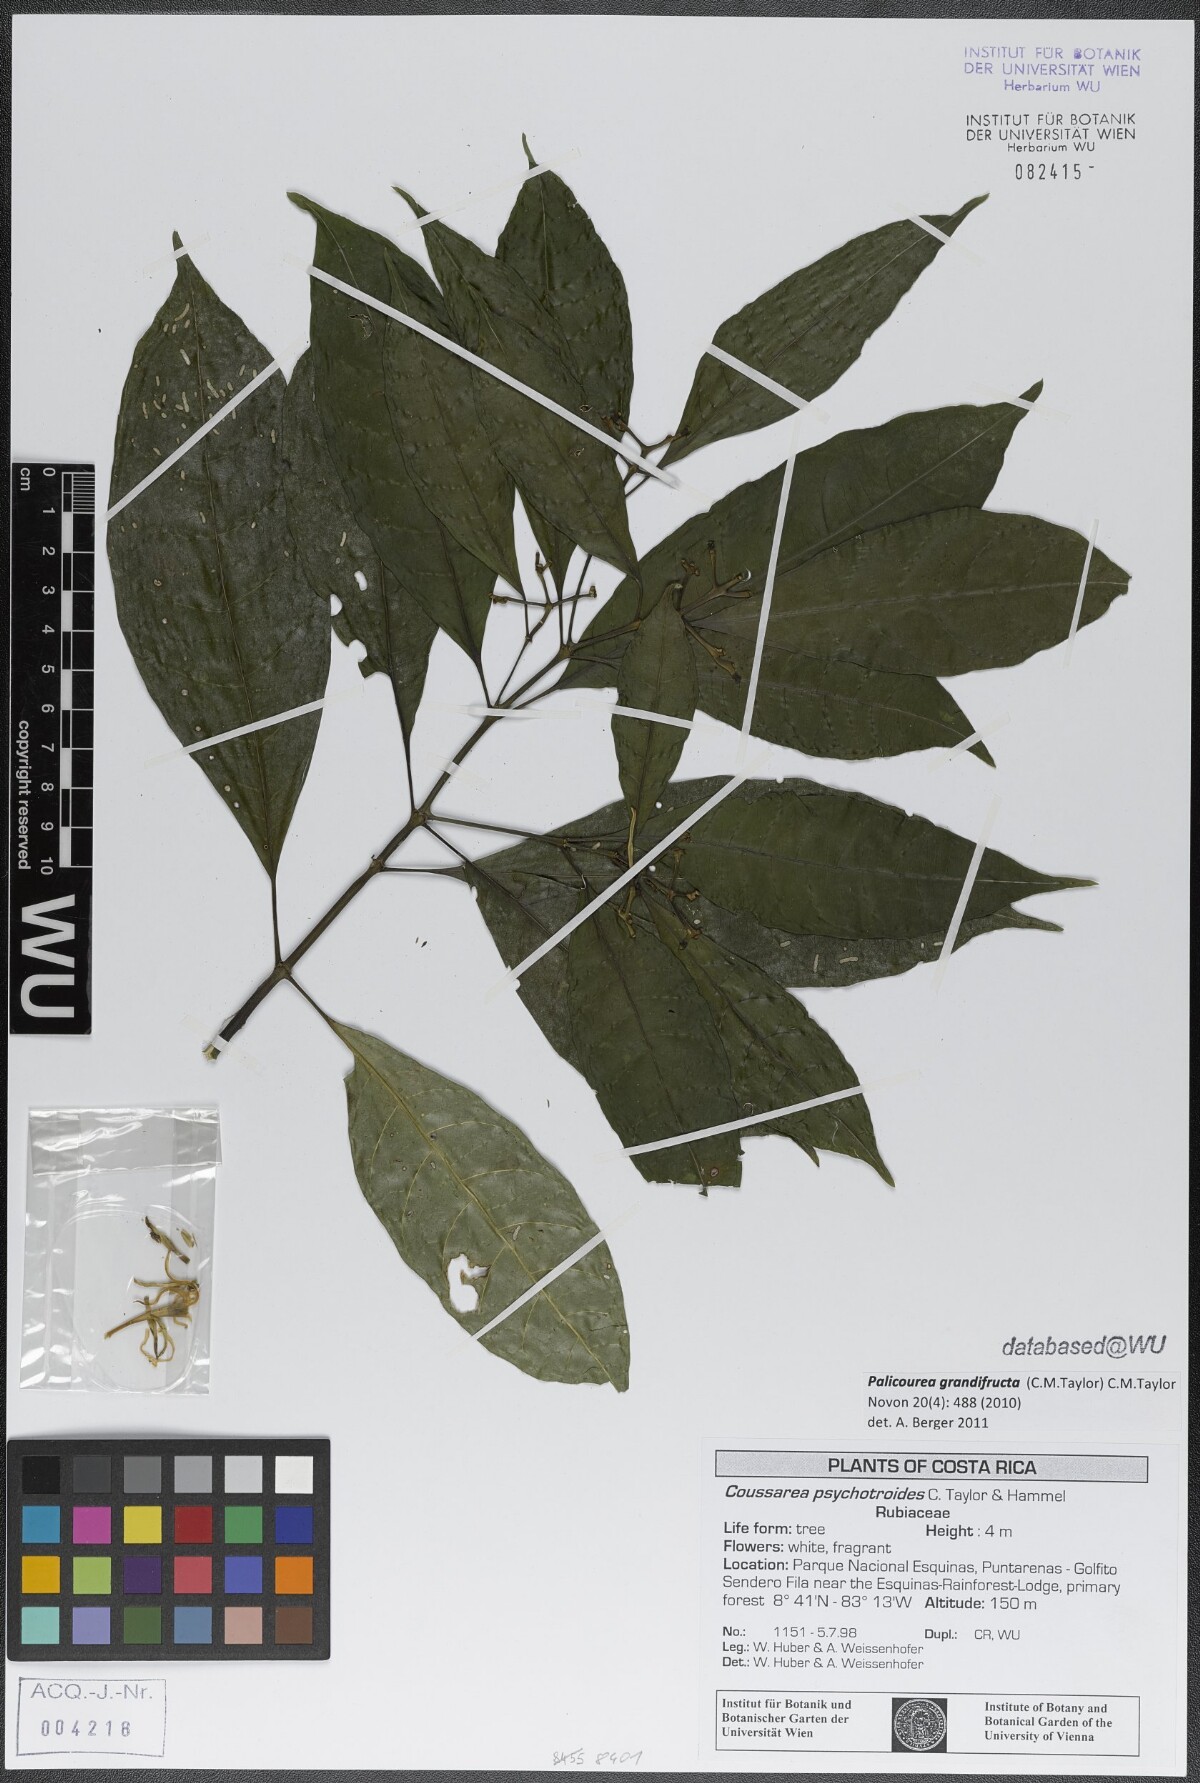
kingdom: Plantae
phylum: Tracheophyta
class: Magnoliopsida
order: Gentianales
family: Rubiaceae
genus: Palicourea
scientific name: Palicourea grandifructa
